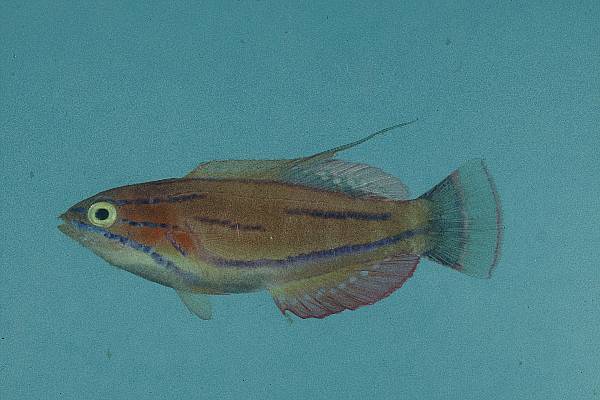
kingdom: Animalia
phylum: Chordata
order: Perciformes
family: Labridae
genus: Paracheilinus
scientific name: Paracheilinus mccoskeri
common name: Mccosker's flasher
